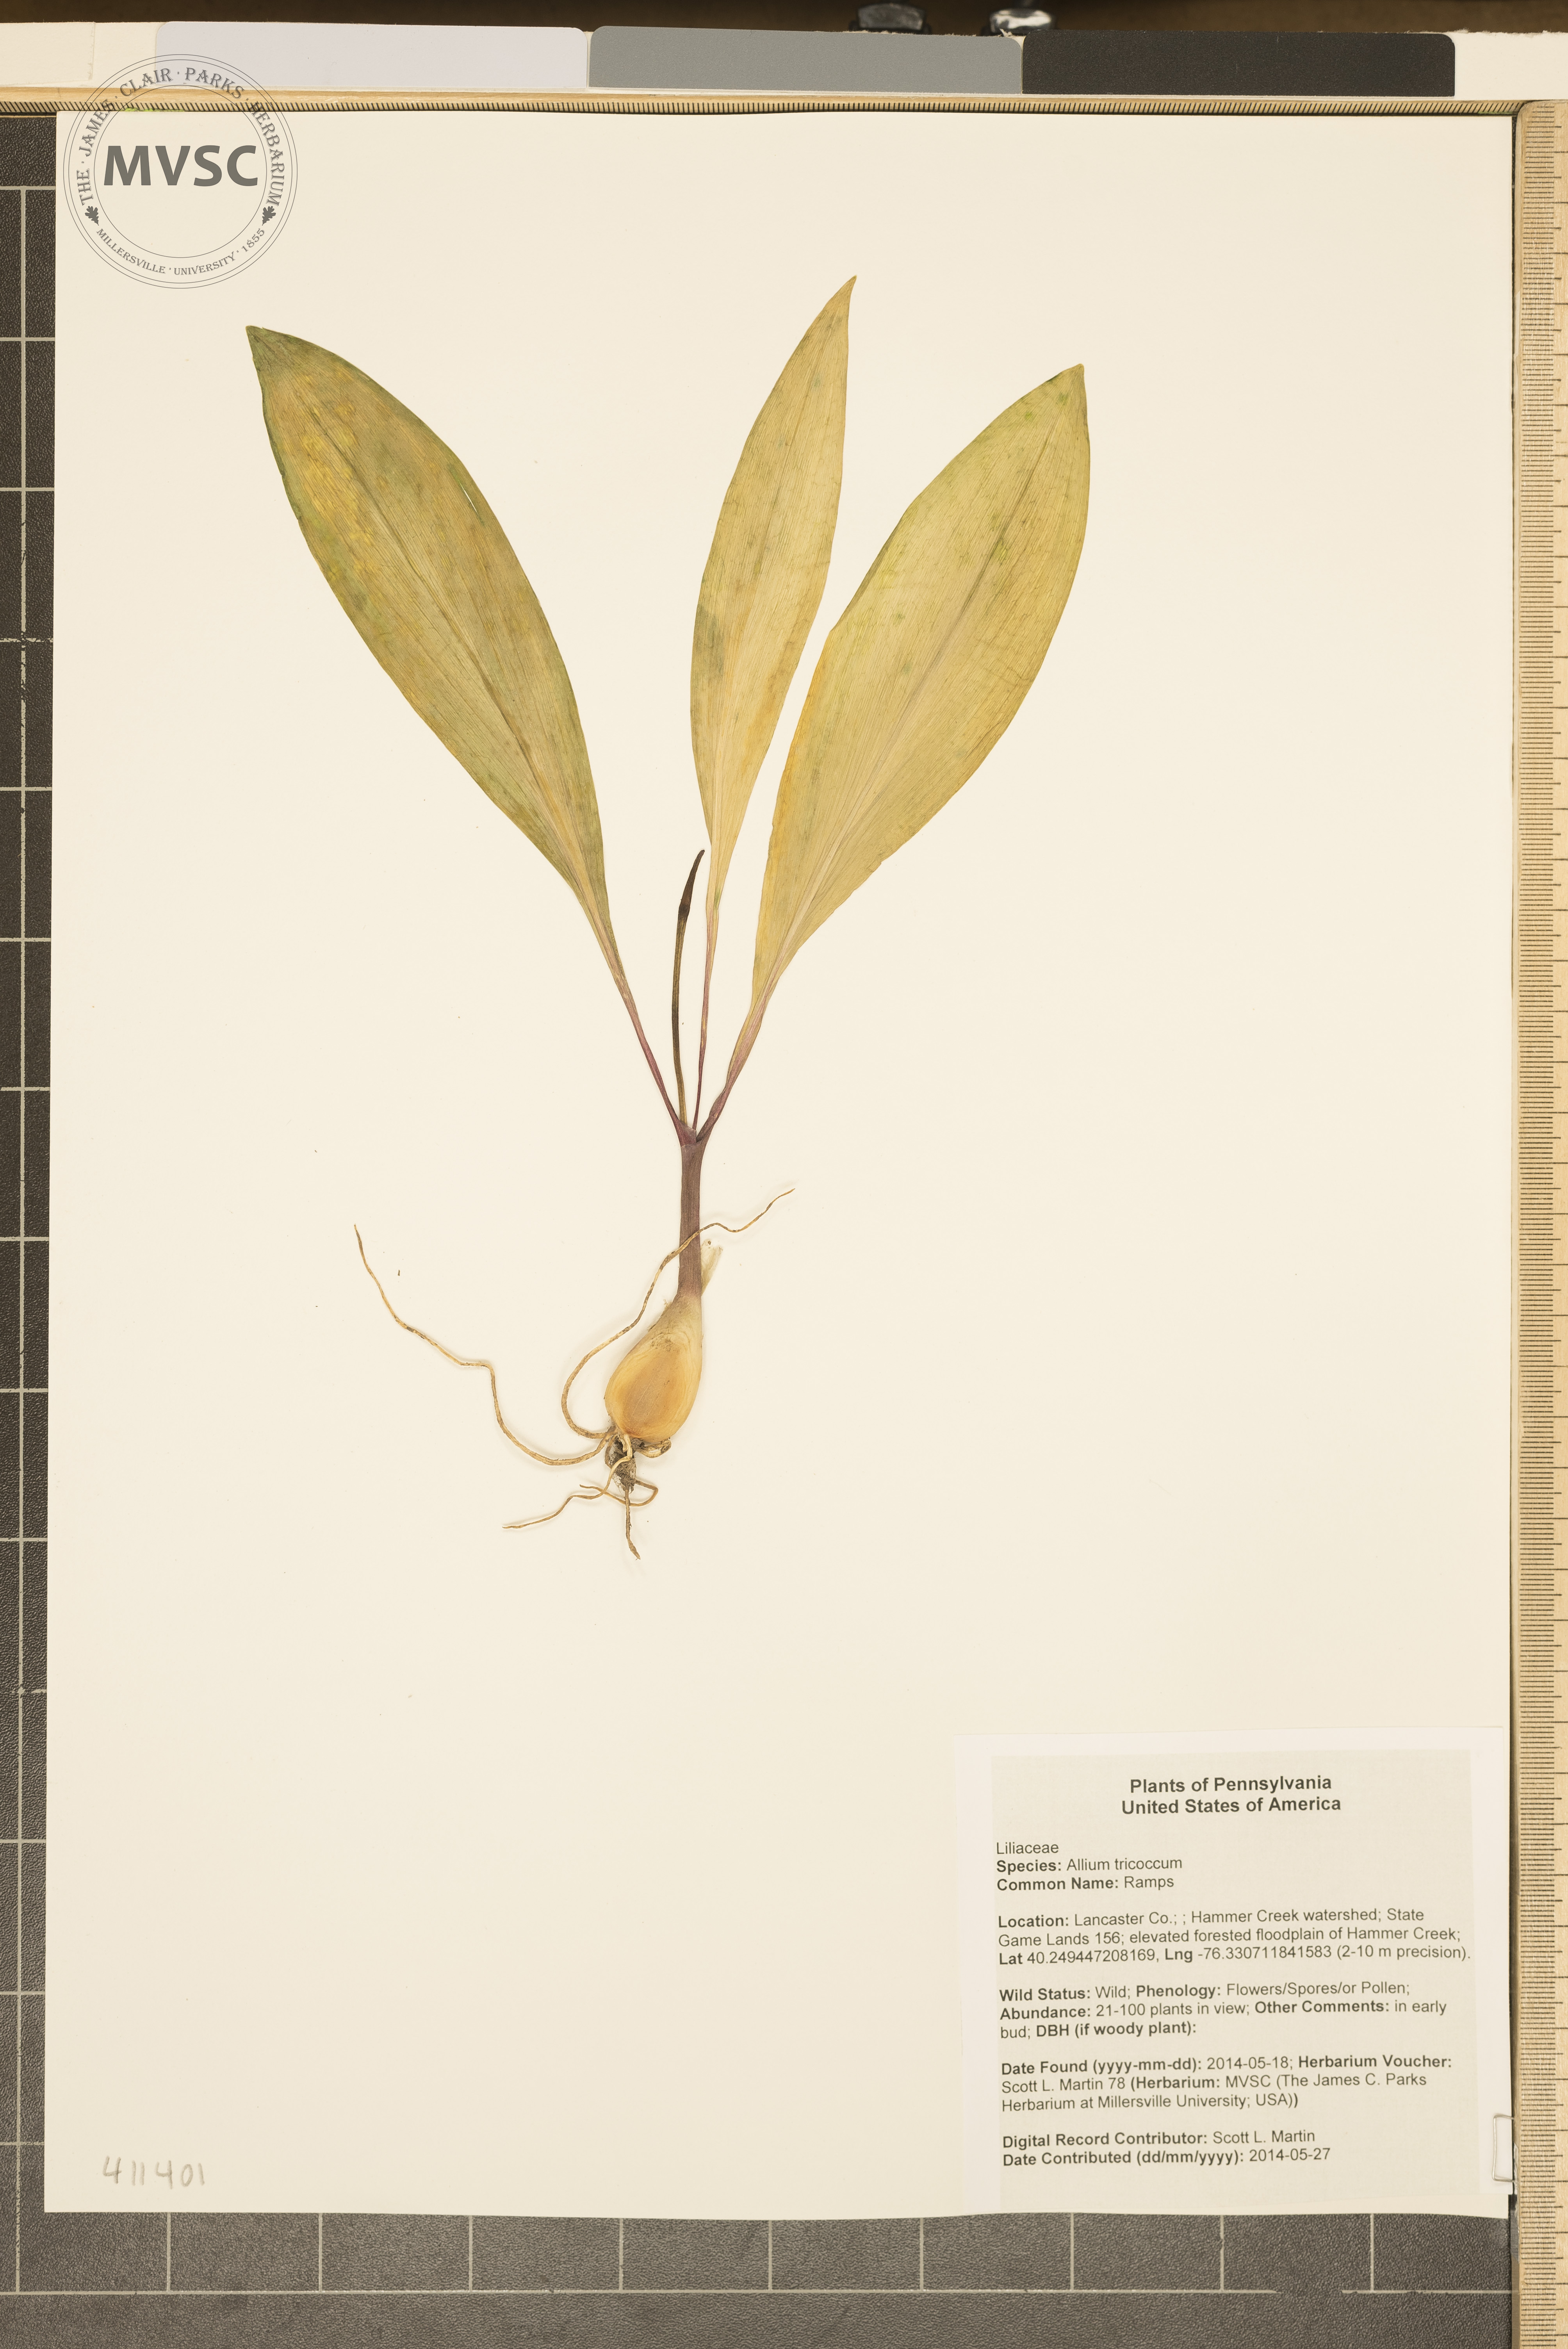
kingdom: Plantae
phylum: Tracheophyta
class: Liliopsida
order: Asparagales
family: Amaryllidaceae
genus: Allium
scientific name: Allium tricoccum
